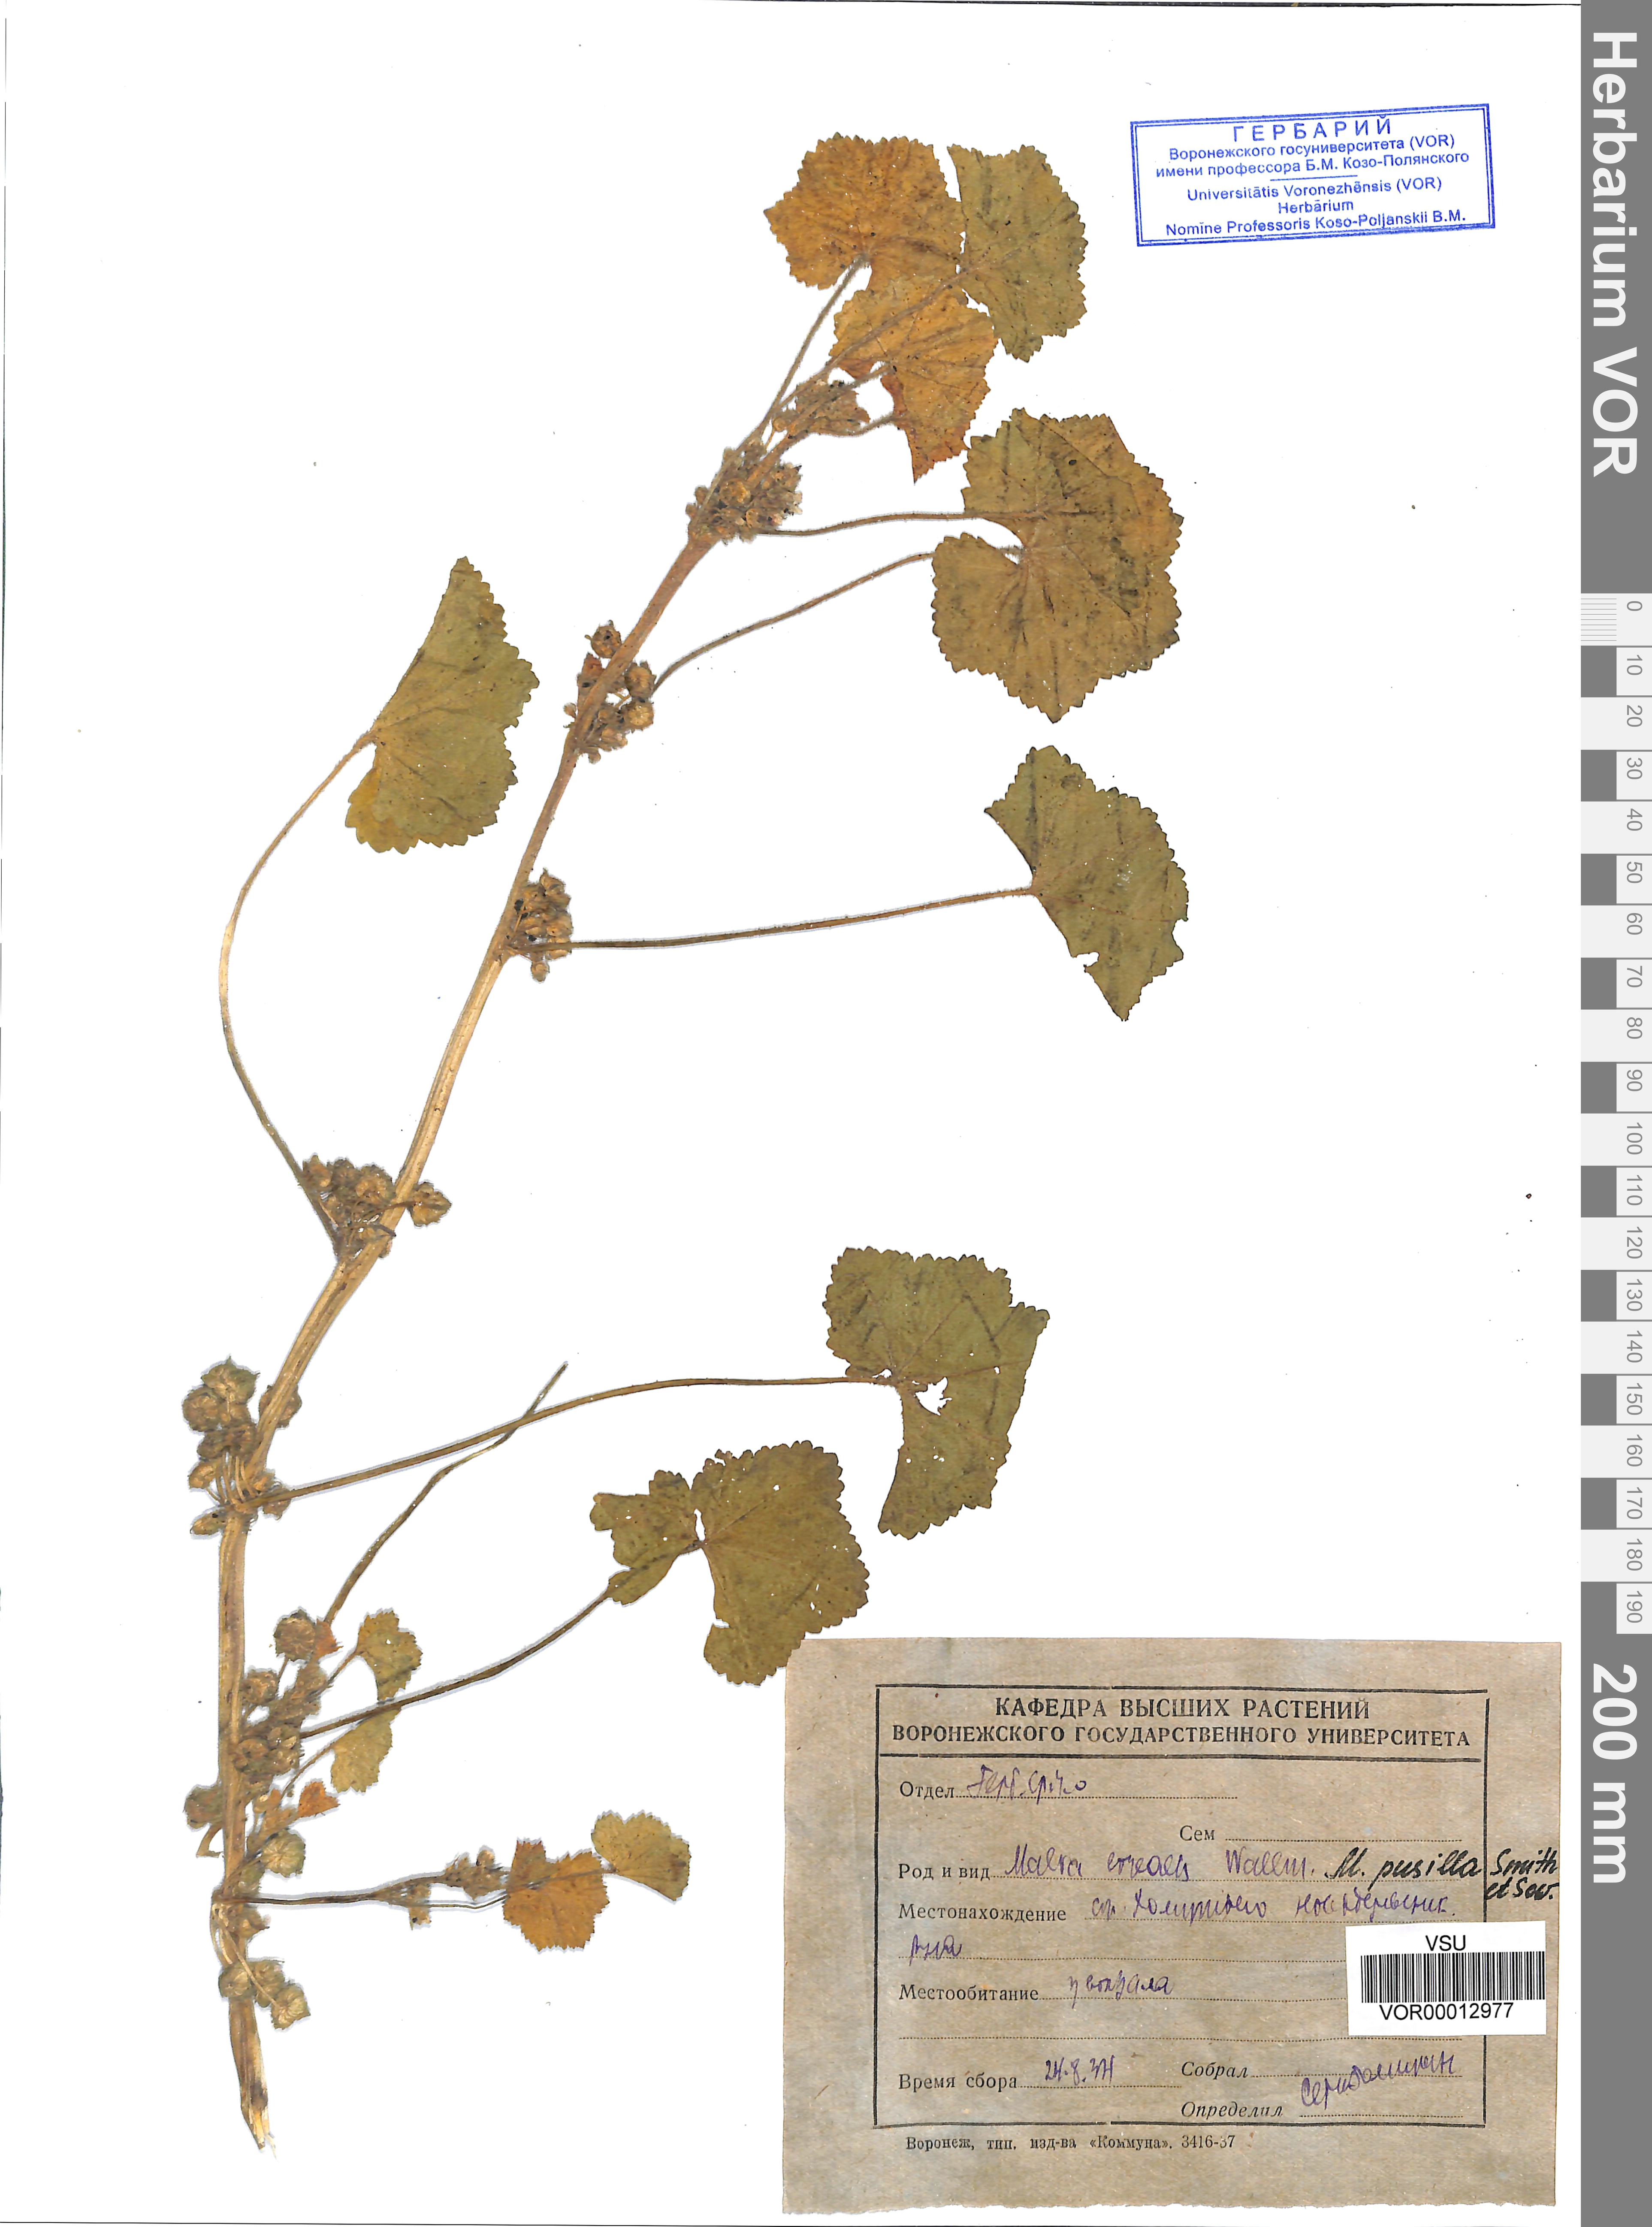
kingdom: Plantae
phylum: Tracheophyta
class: Magnoliopsida
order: Malvales
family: Malvaceae
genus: Malva
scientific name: Malva pusilla
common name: Small mallow
